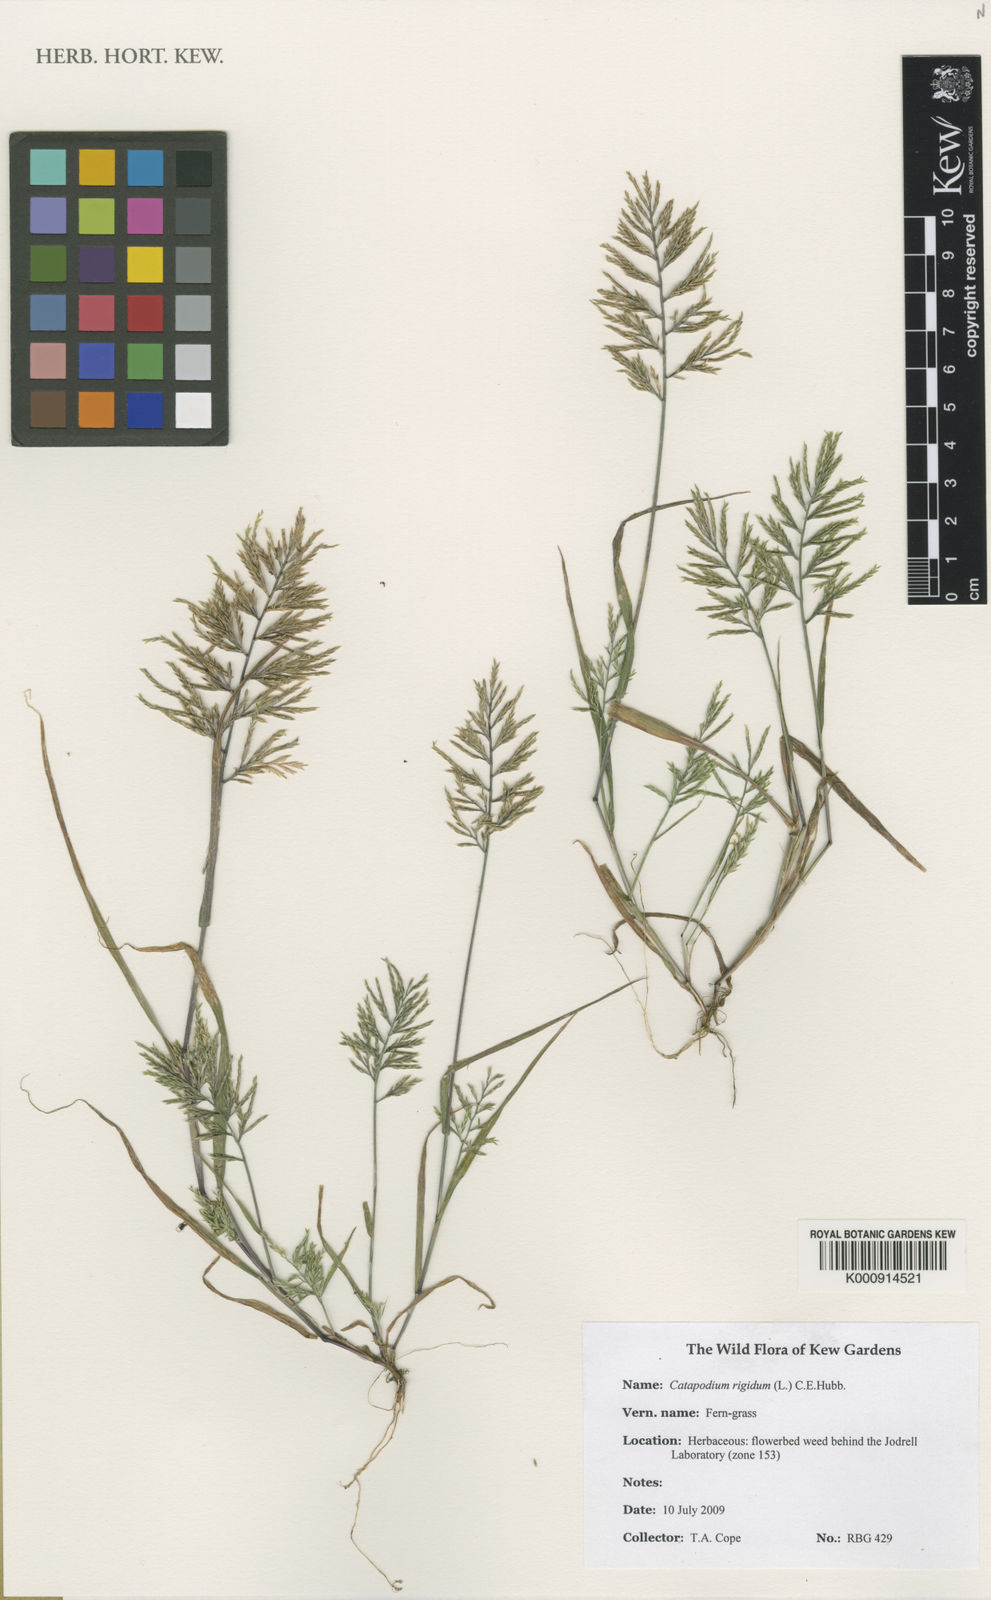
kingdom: Plantae
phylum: Tracheophyta
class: Liliopsida
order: Poales
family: Poaceae
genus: Catapodium
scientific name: Catapodium rigidum
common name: Fern-grass
